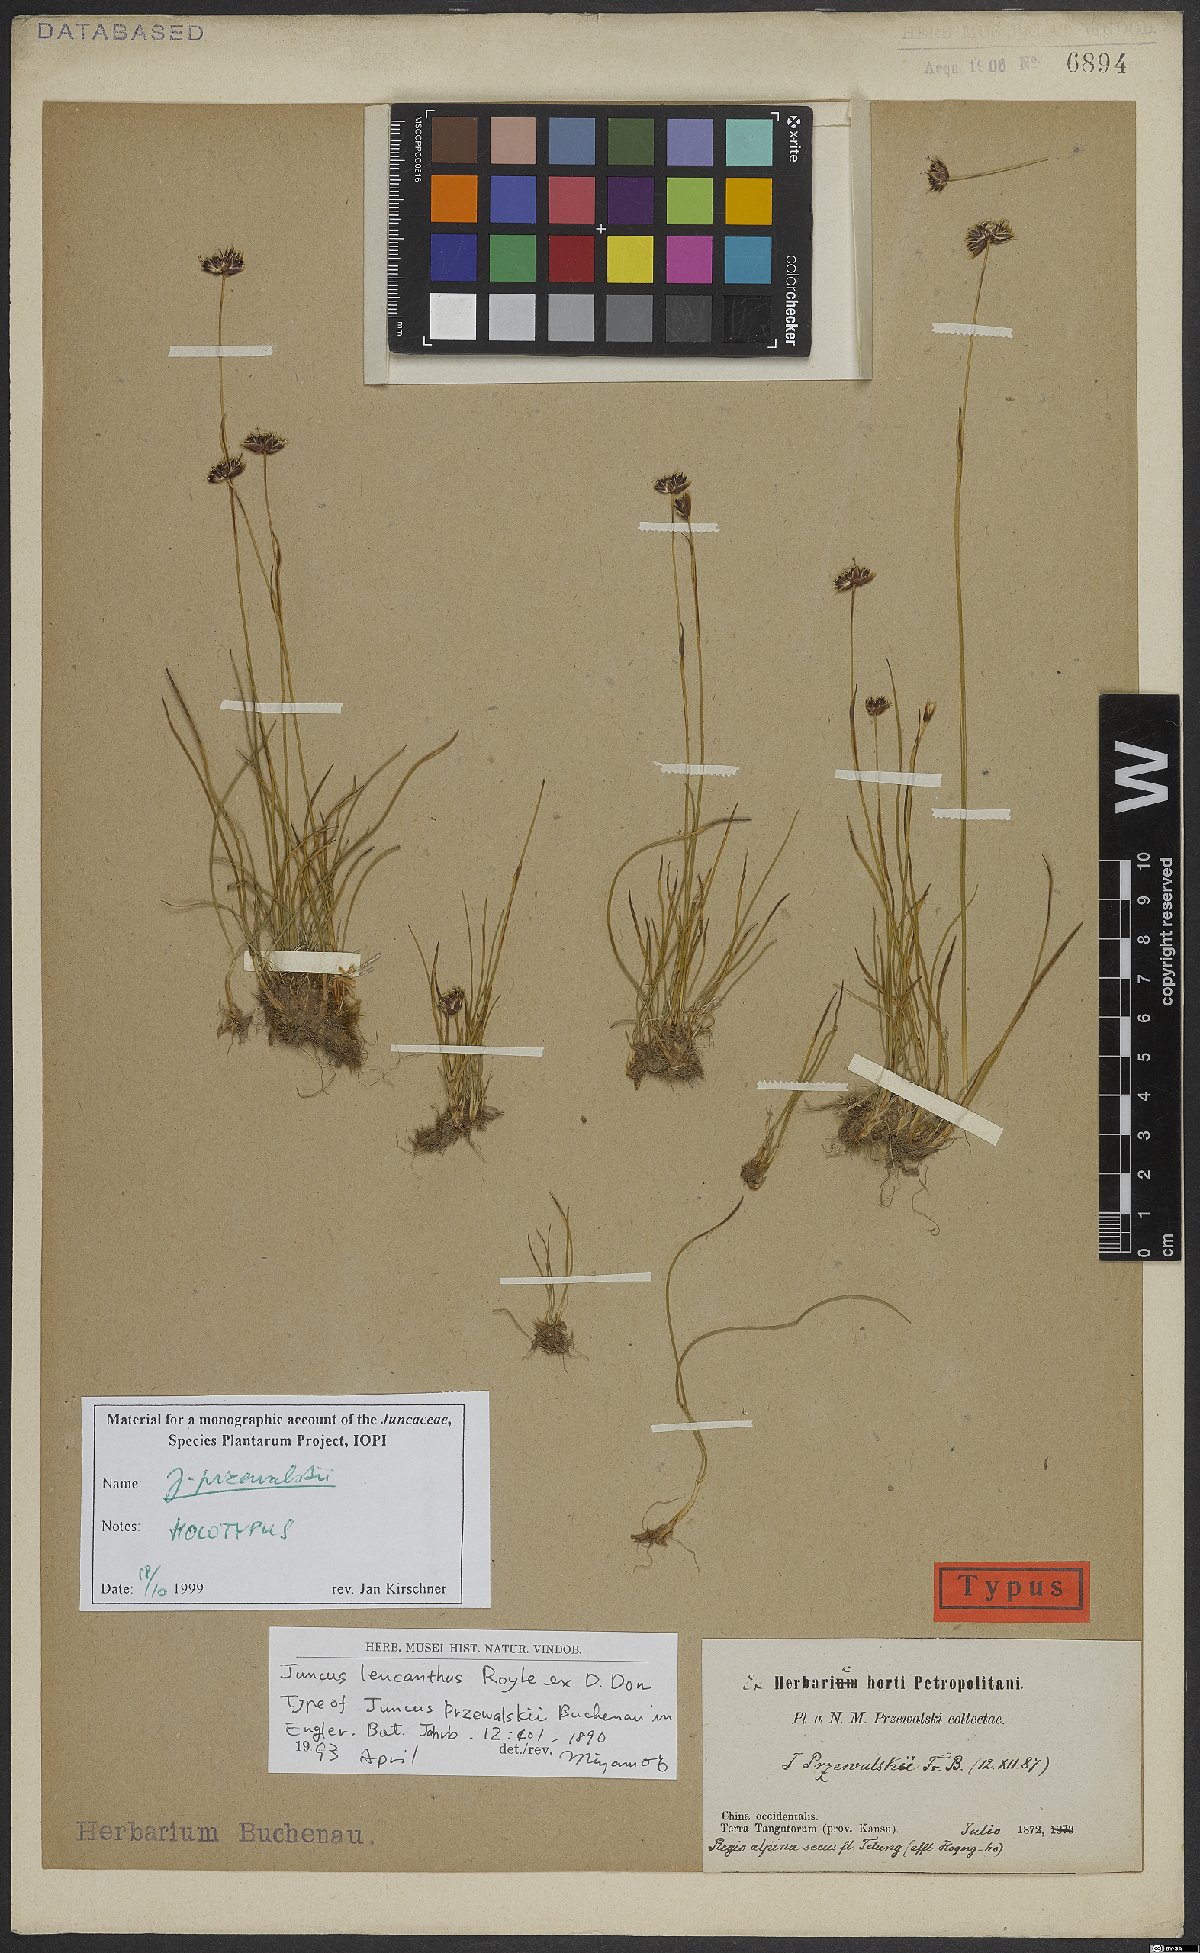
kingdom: Plantae
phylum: Tracheophyta
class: Liliopsida
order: Poales
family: Juncaceae
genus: Juncus
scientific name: Juncus przewalskii
